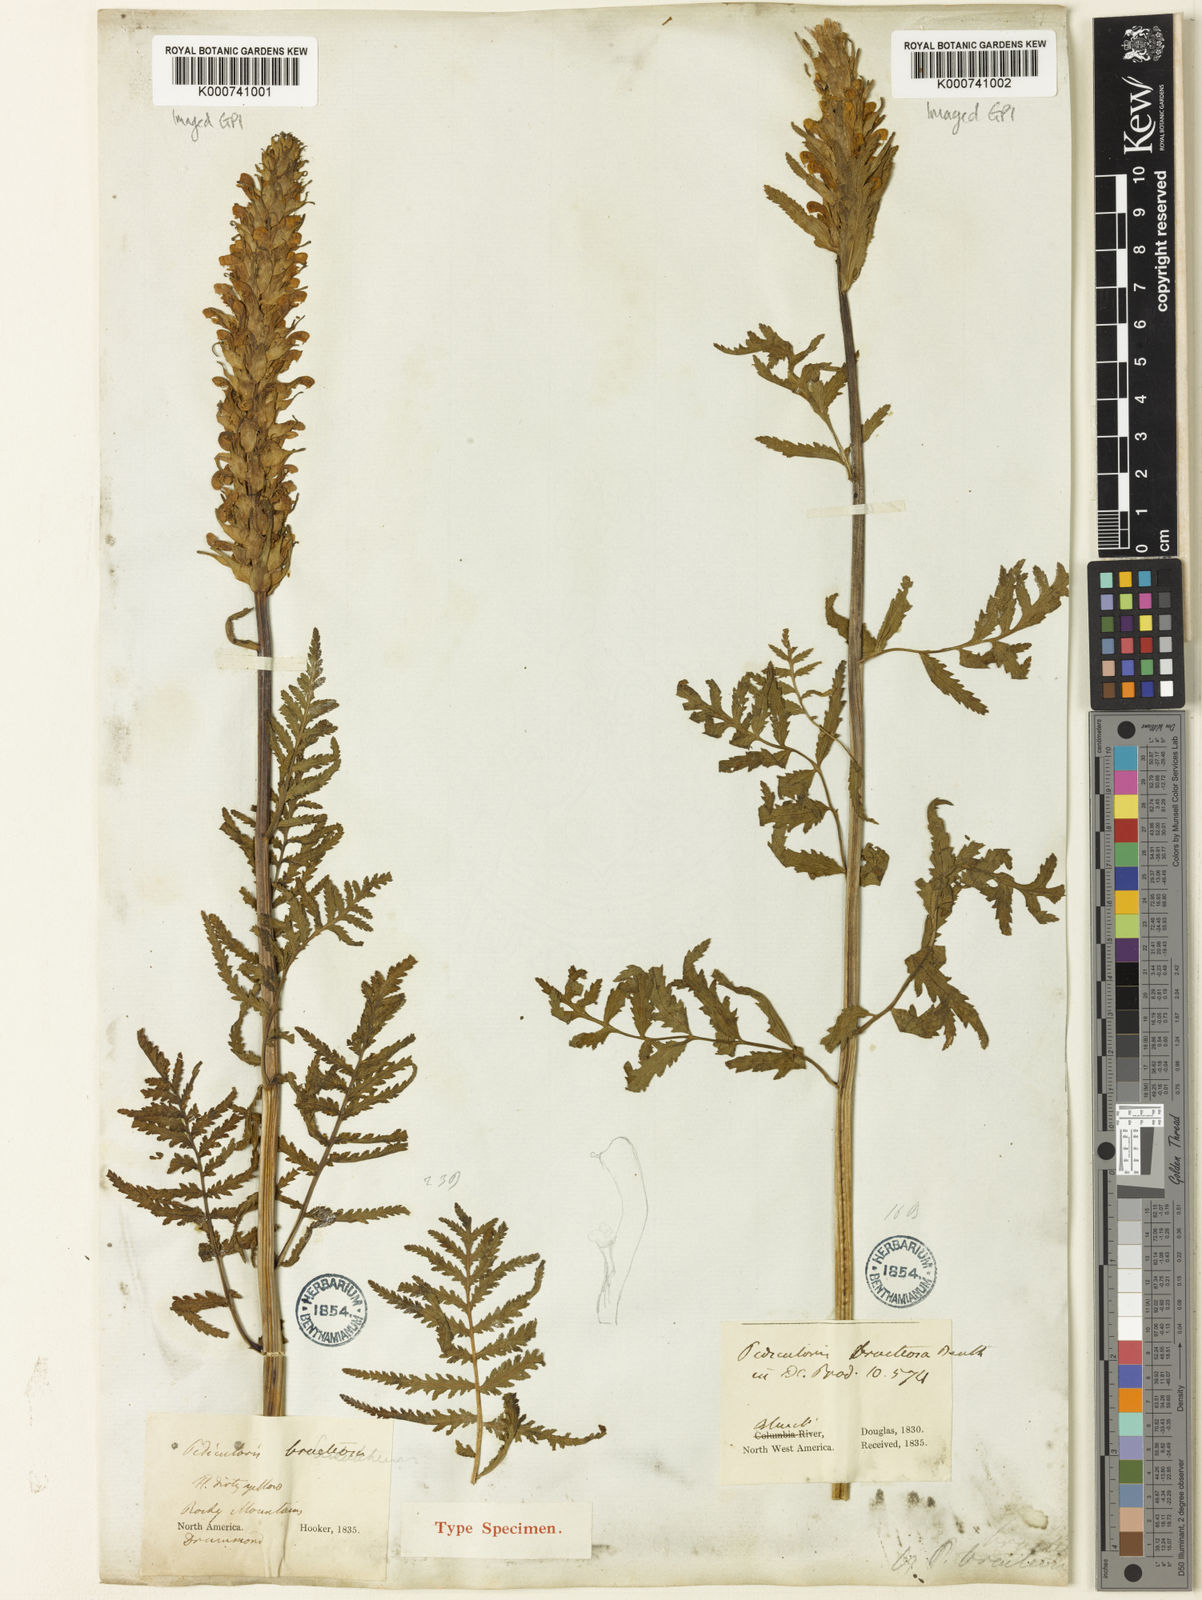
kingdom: Plantae
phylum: Tracheophyta
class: Magnoliopsida
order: Lamiales
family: Orobanchaceae
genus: Pedicularis
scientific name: Pedicularis bracteosa
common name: Bracted lousewort
